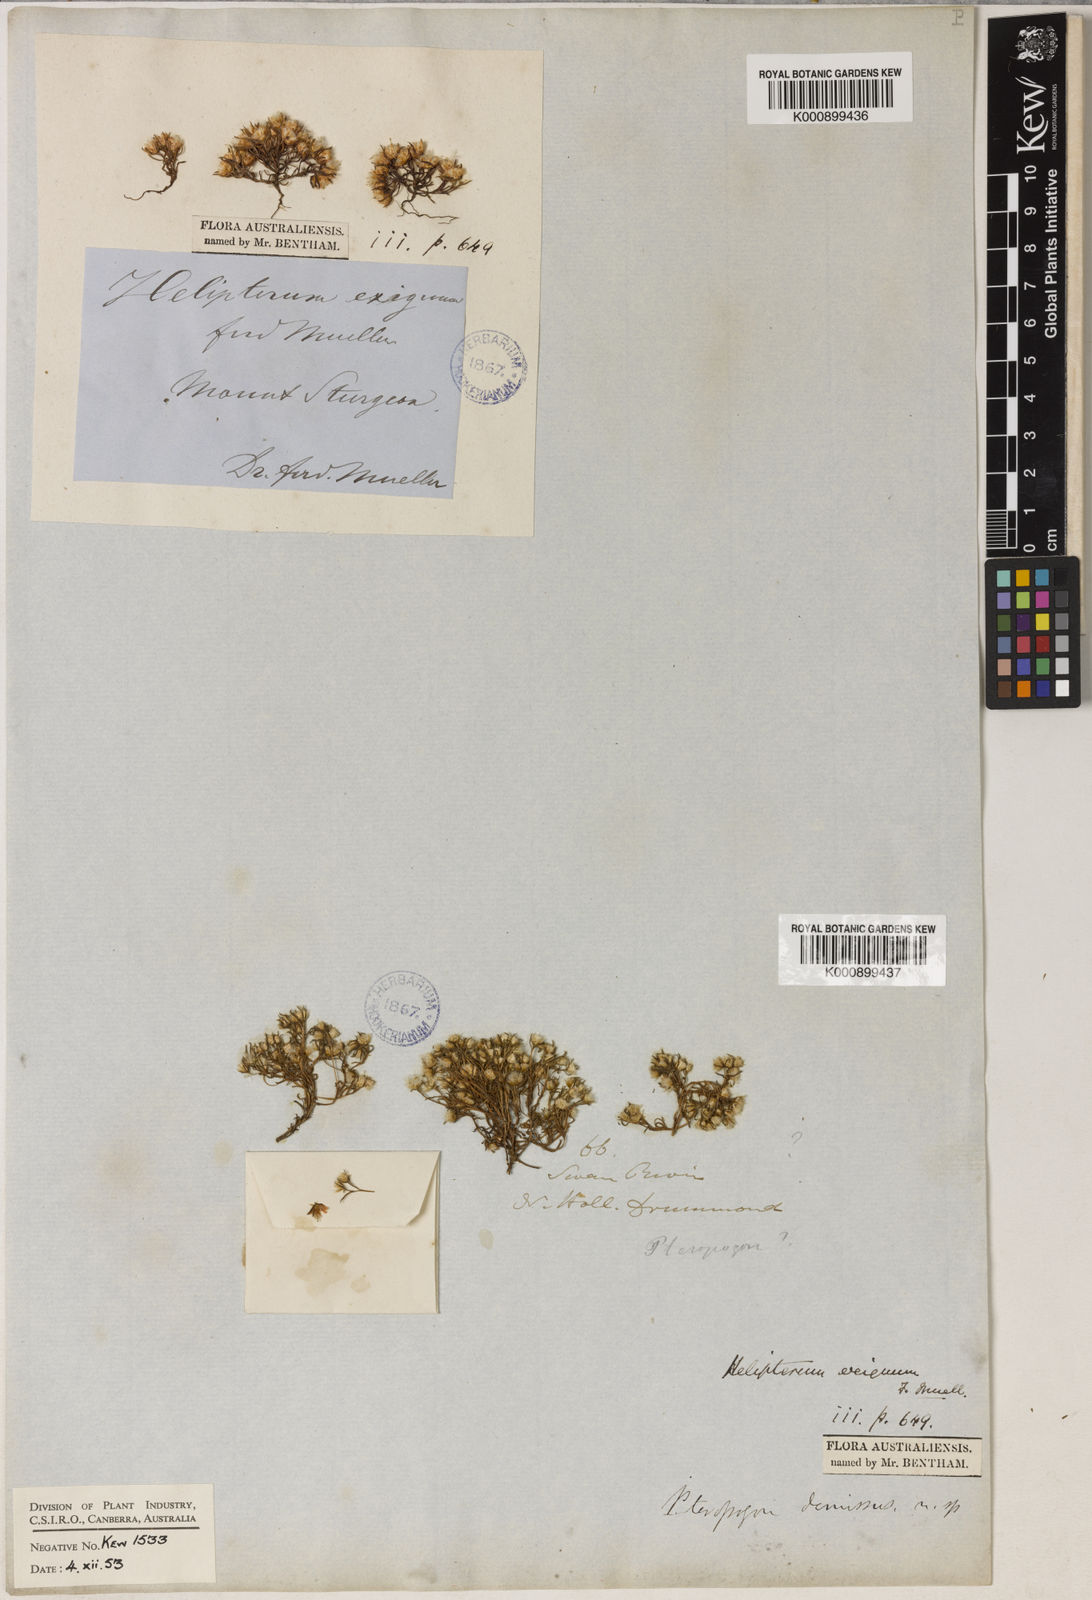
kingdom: Plantae
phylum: Tracheophyta
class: Magnoliopsida
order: Asterales
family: Asteraceae
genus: Hyalosperma
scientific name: Hyalosperma demissum
